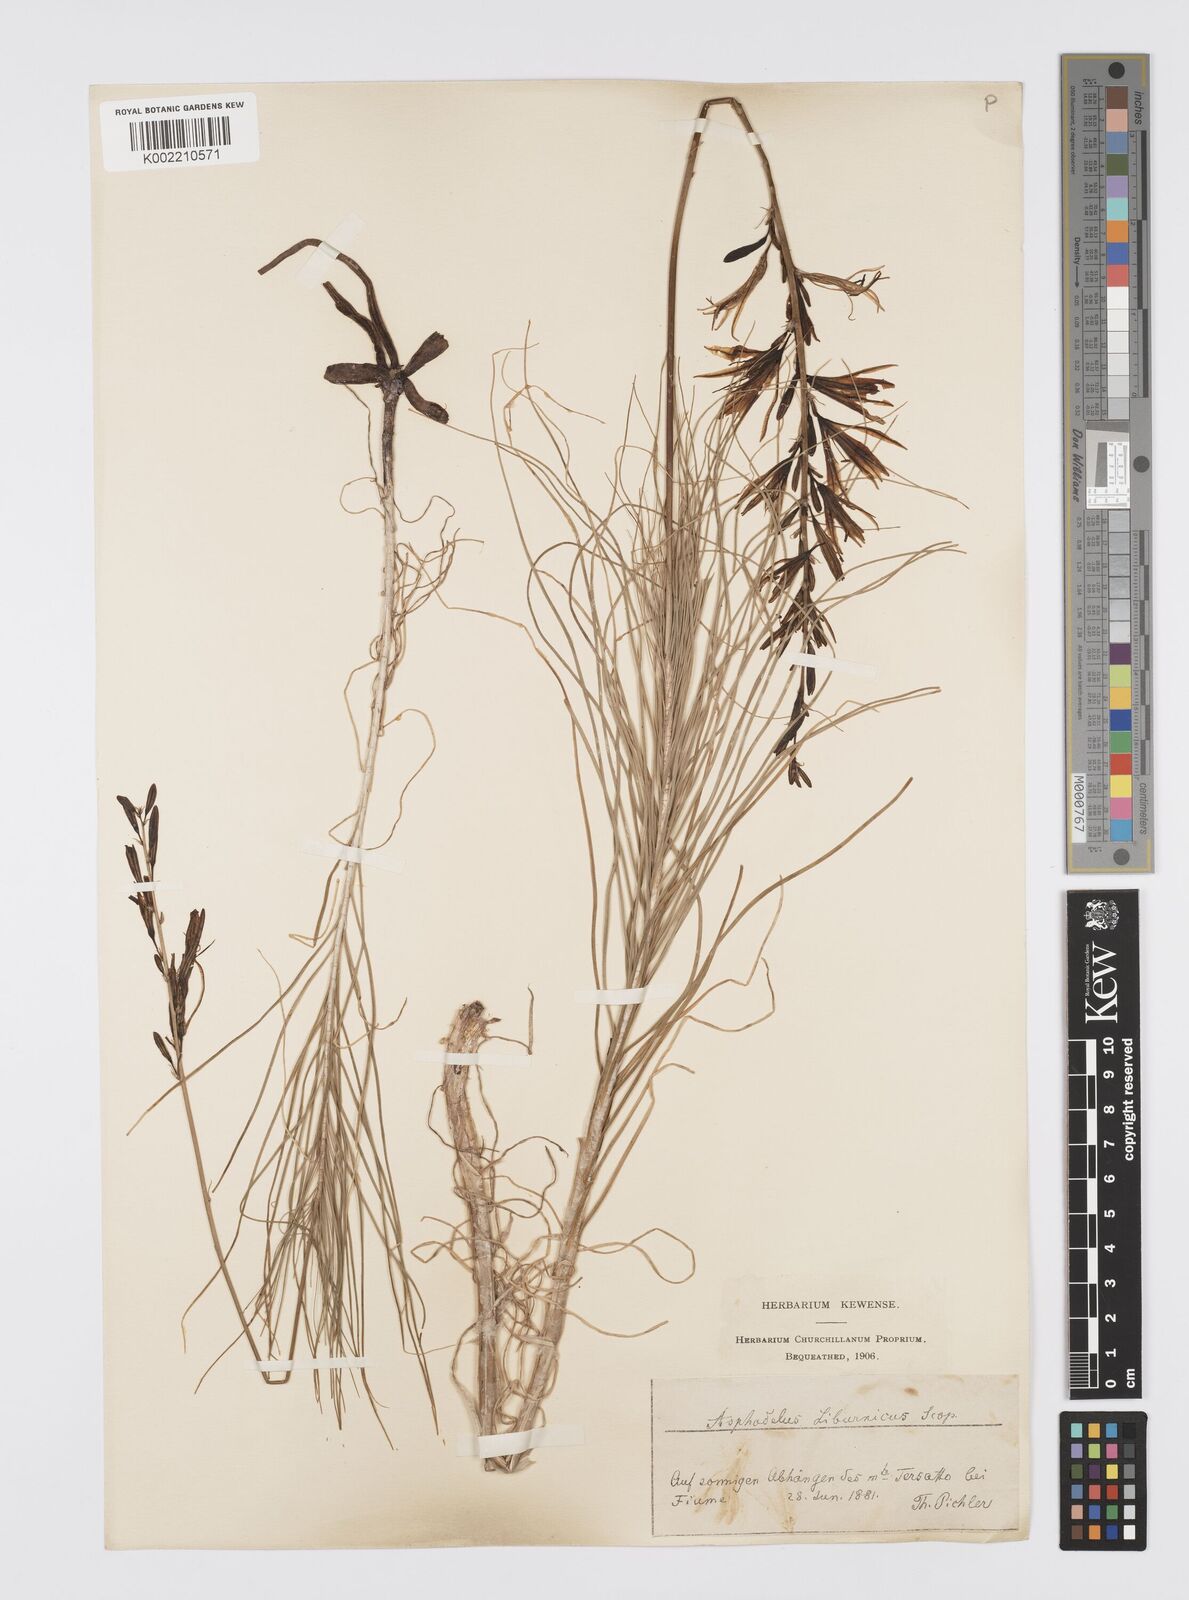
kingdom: Plantae
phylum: Tracheophyta
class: Liliopsida
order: Asparagales
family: Asphodelaceae
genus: Asphodeline
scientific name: Asphodeline liburnica
